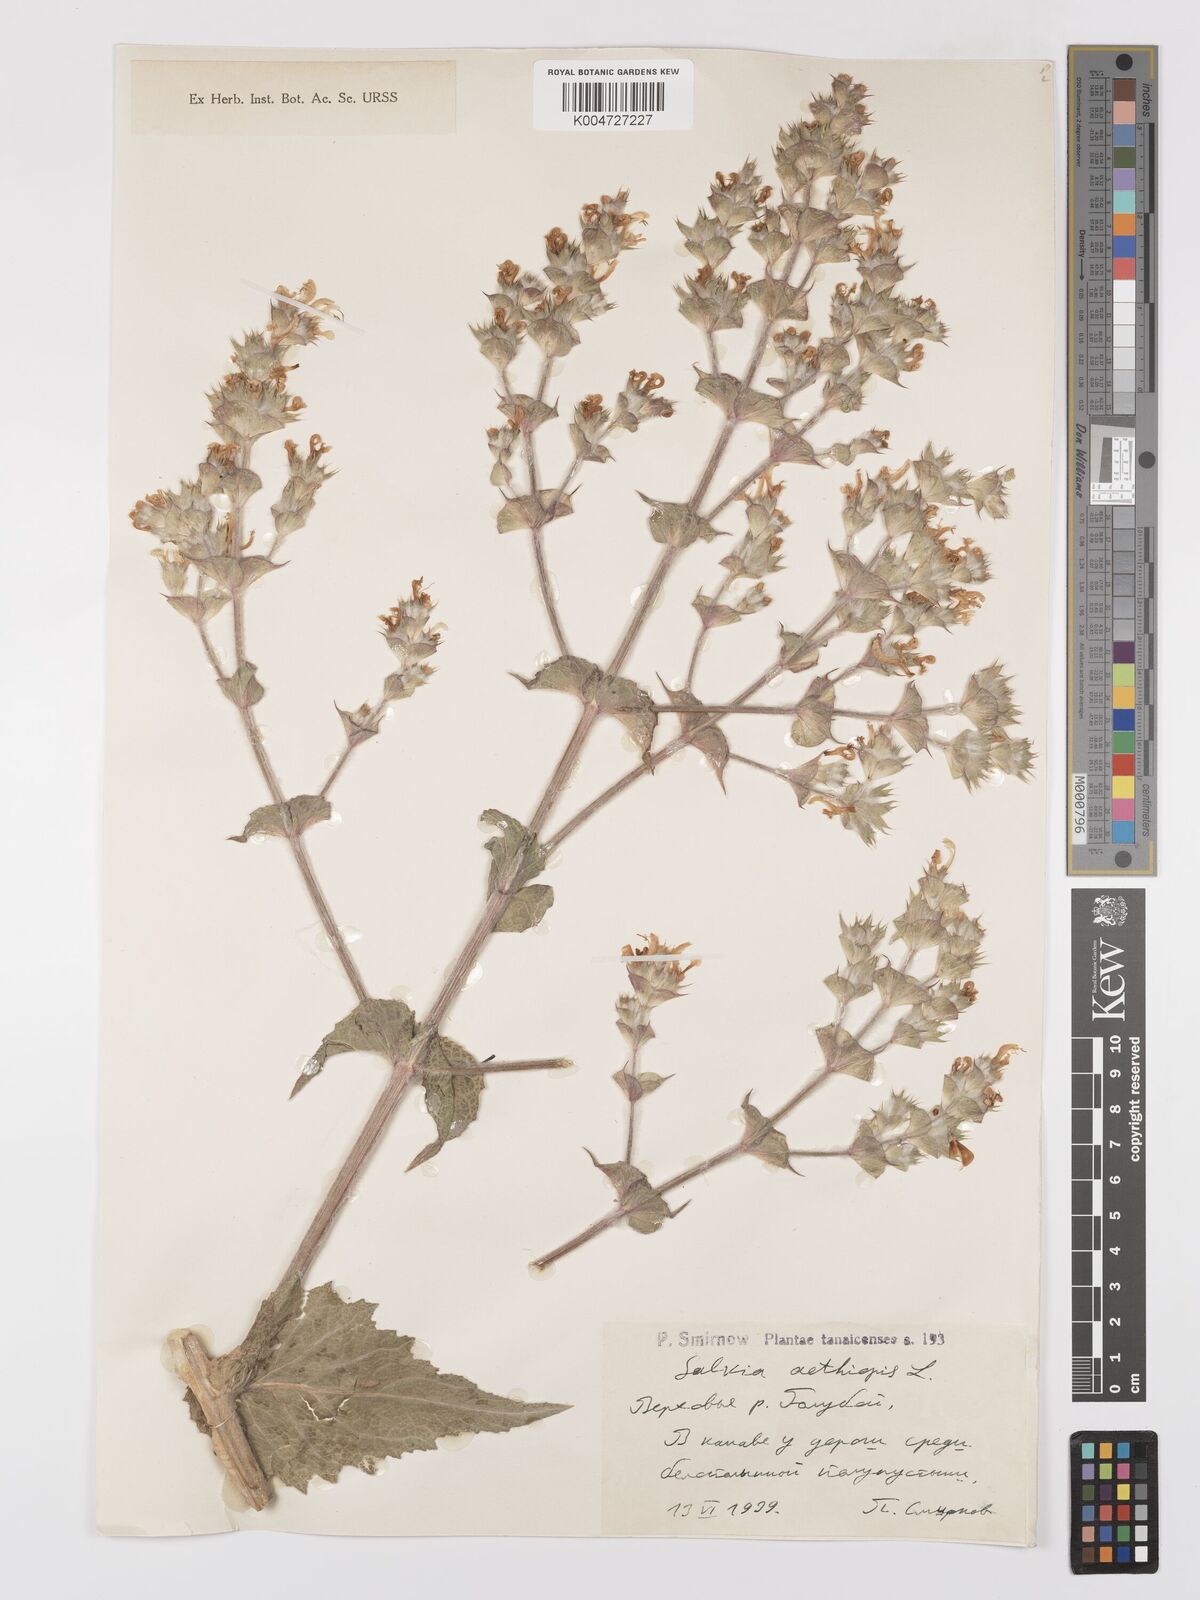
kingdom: Plantae
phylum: Tracheophyta
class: Magnoliopsida
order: Lamiales
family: Lamiaceae
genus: Salvia
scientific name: Salvia aethiopis
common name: Mediterranean sage
